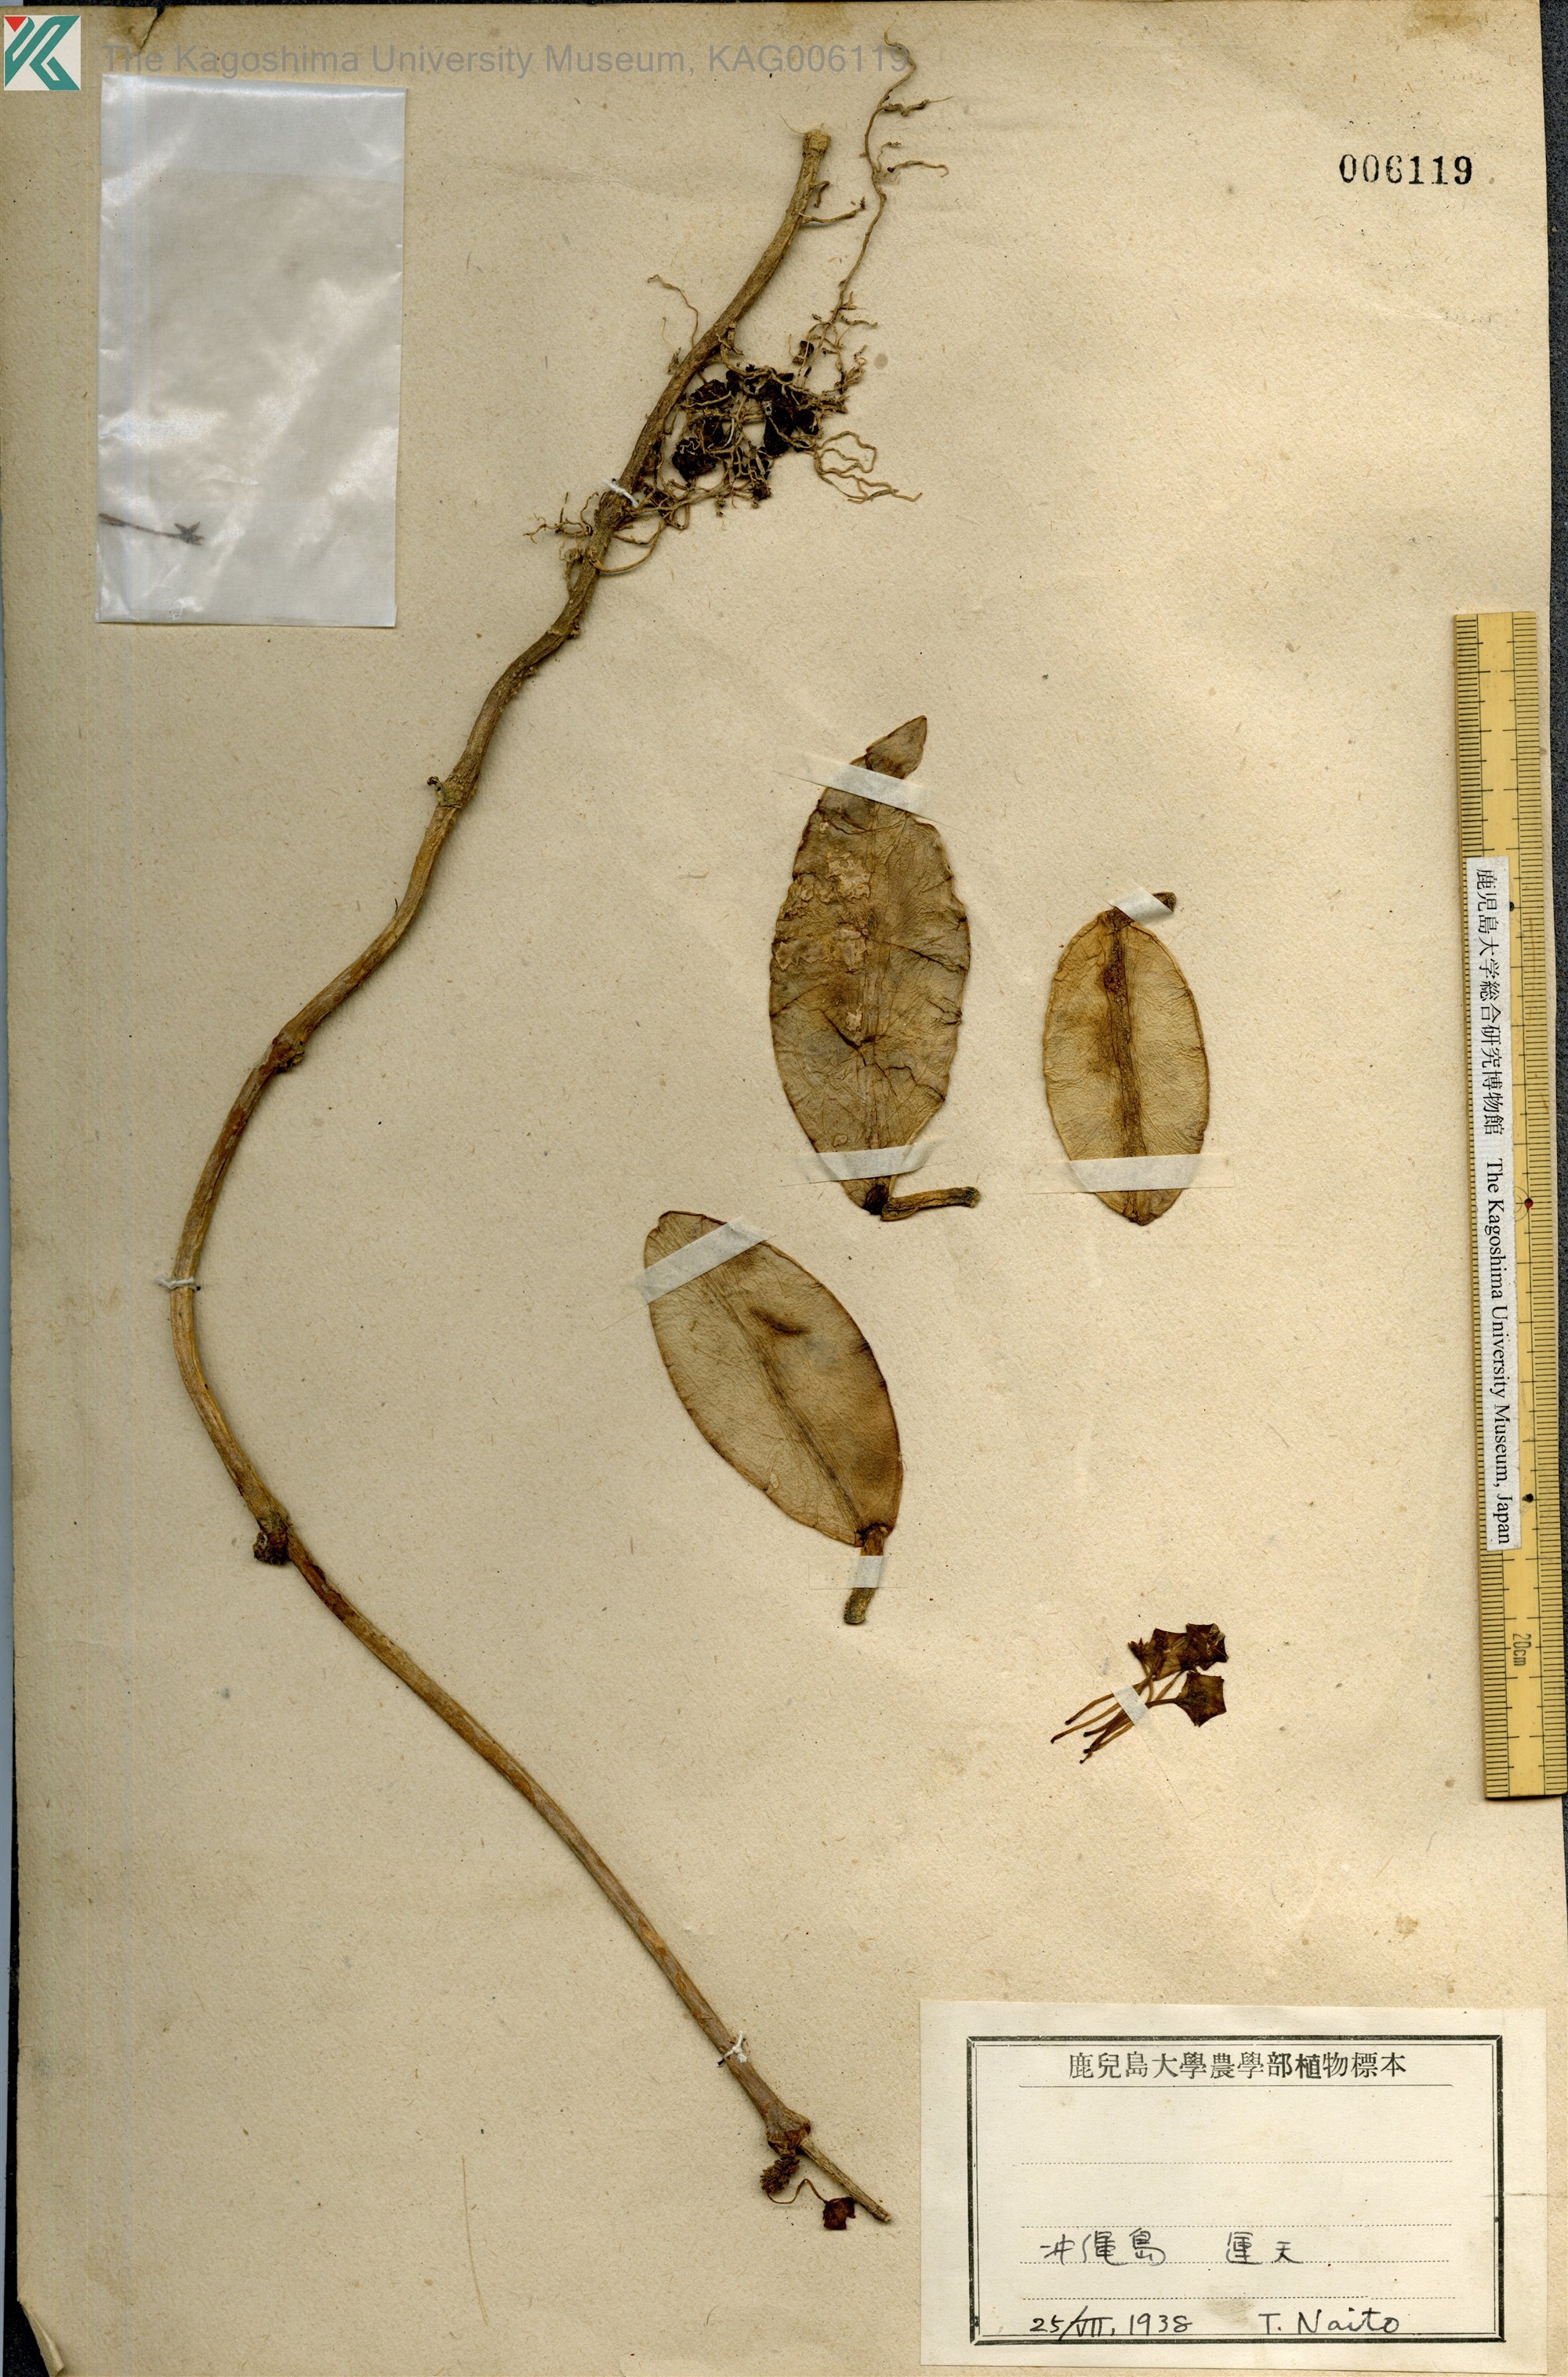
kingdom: Plantae
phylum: Tracheophyta
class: Magnoliopsida
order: Gentianales
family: Apocynaceae
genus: Hoya
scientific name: Hoya carnosa
